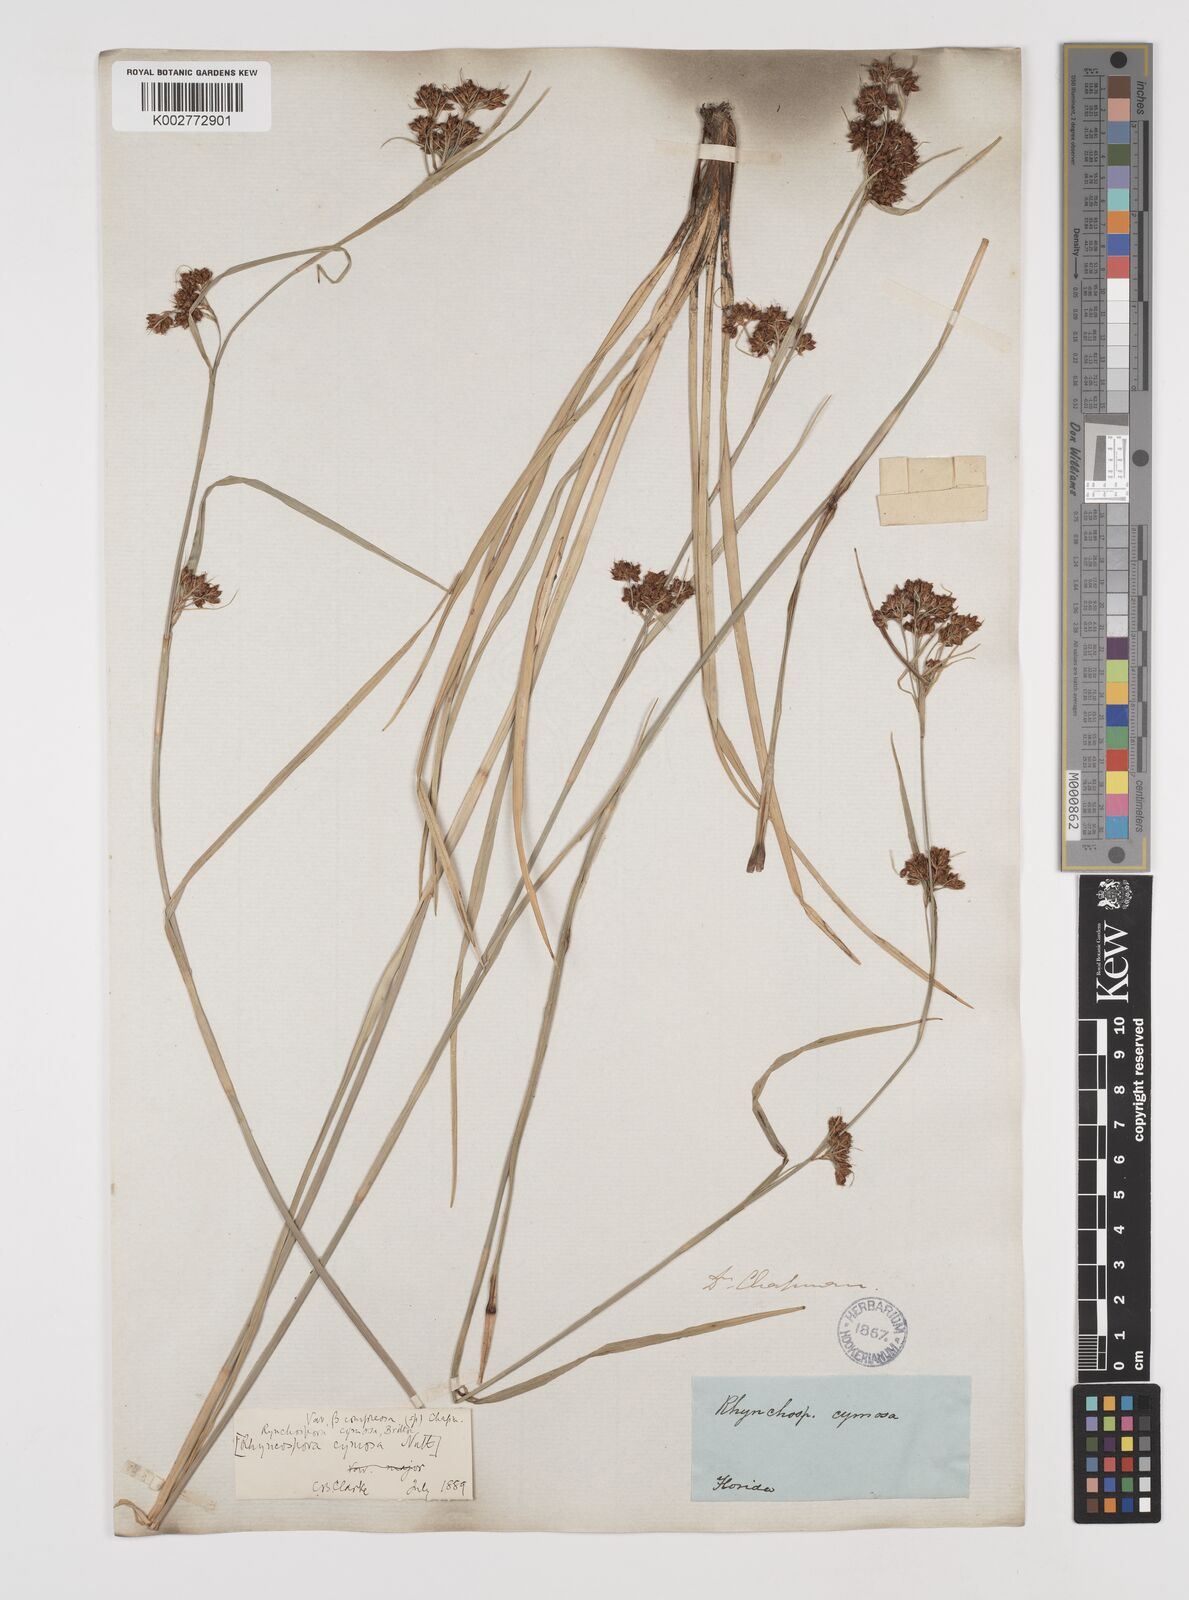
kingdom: Plantae
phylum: Tracheophyta
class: Liliopsida
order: Poales
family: Cyperaceae
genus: Scirpus
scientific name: Scirpus polyphyllus
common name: Leafy bulrush
